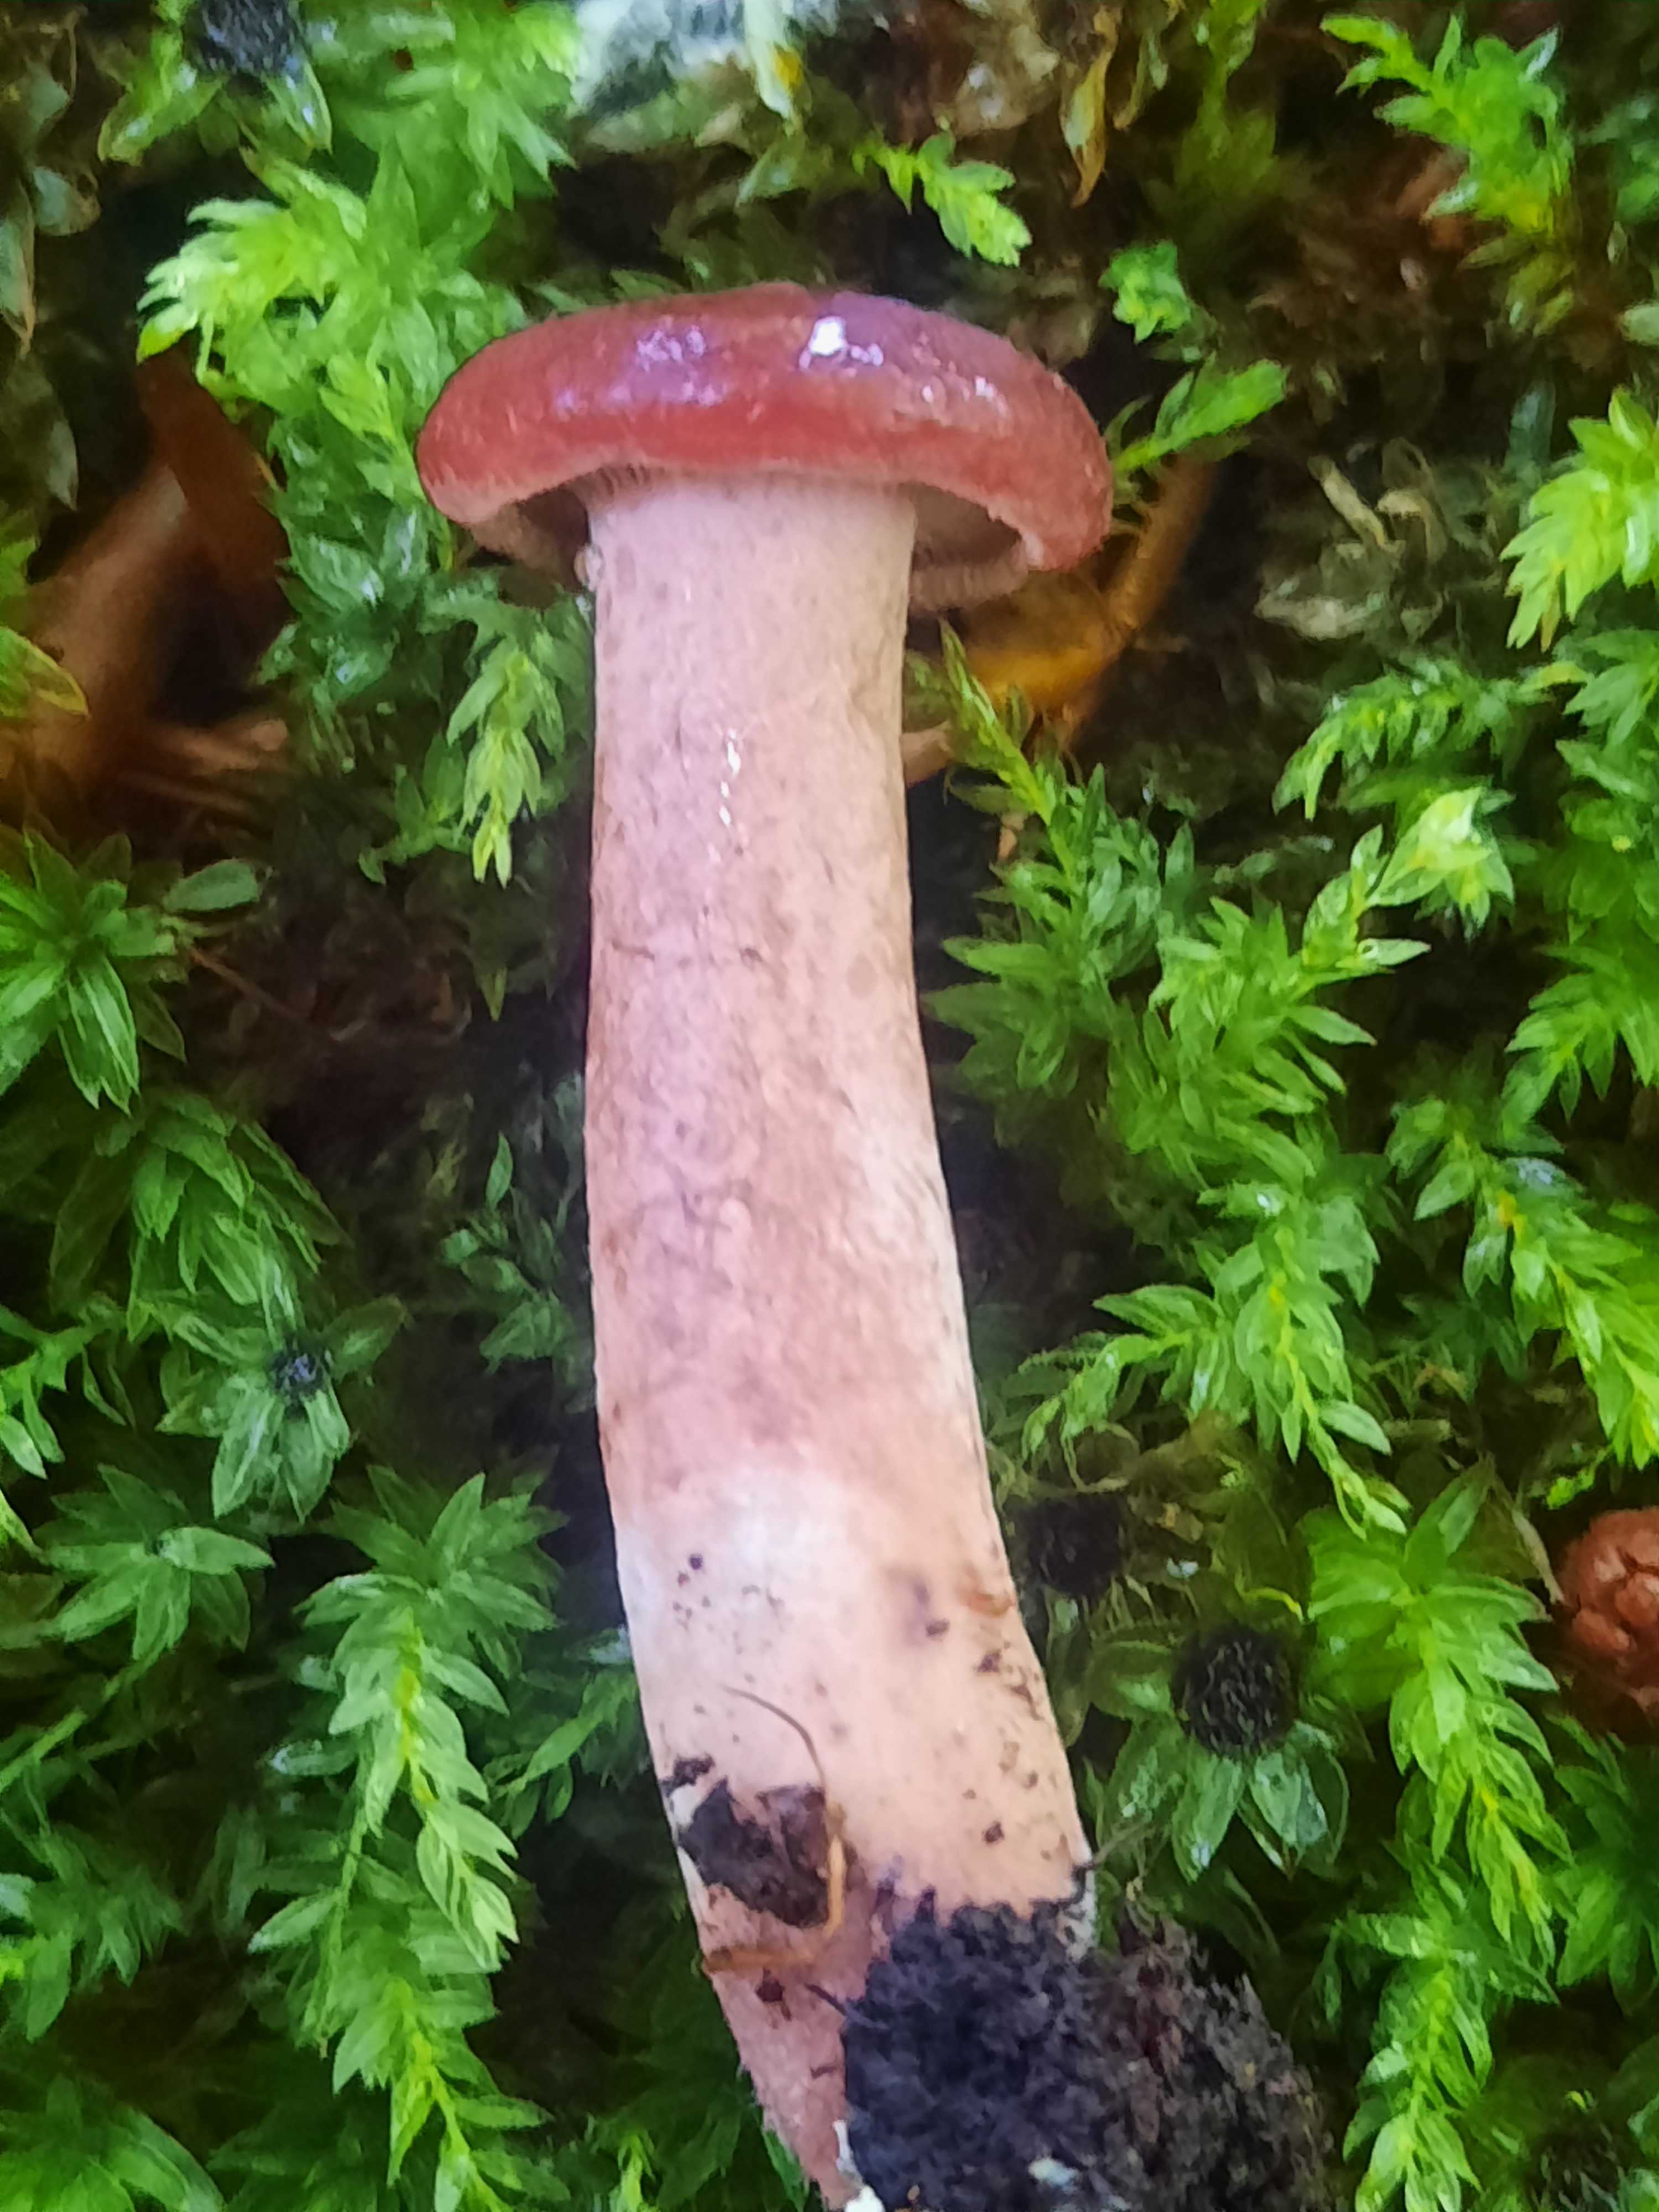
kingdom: Fungi
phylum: Basidiomycota
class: Agaricomycetes
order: Russulales
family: Russulaceae
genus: Lactarius
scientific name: Lactarius
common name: mælkehat
